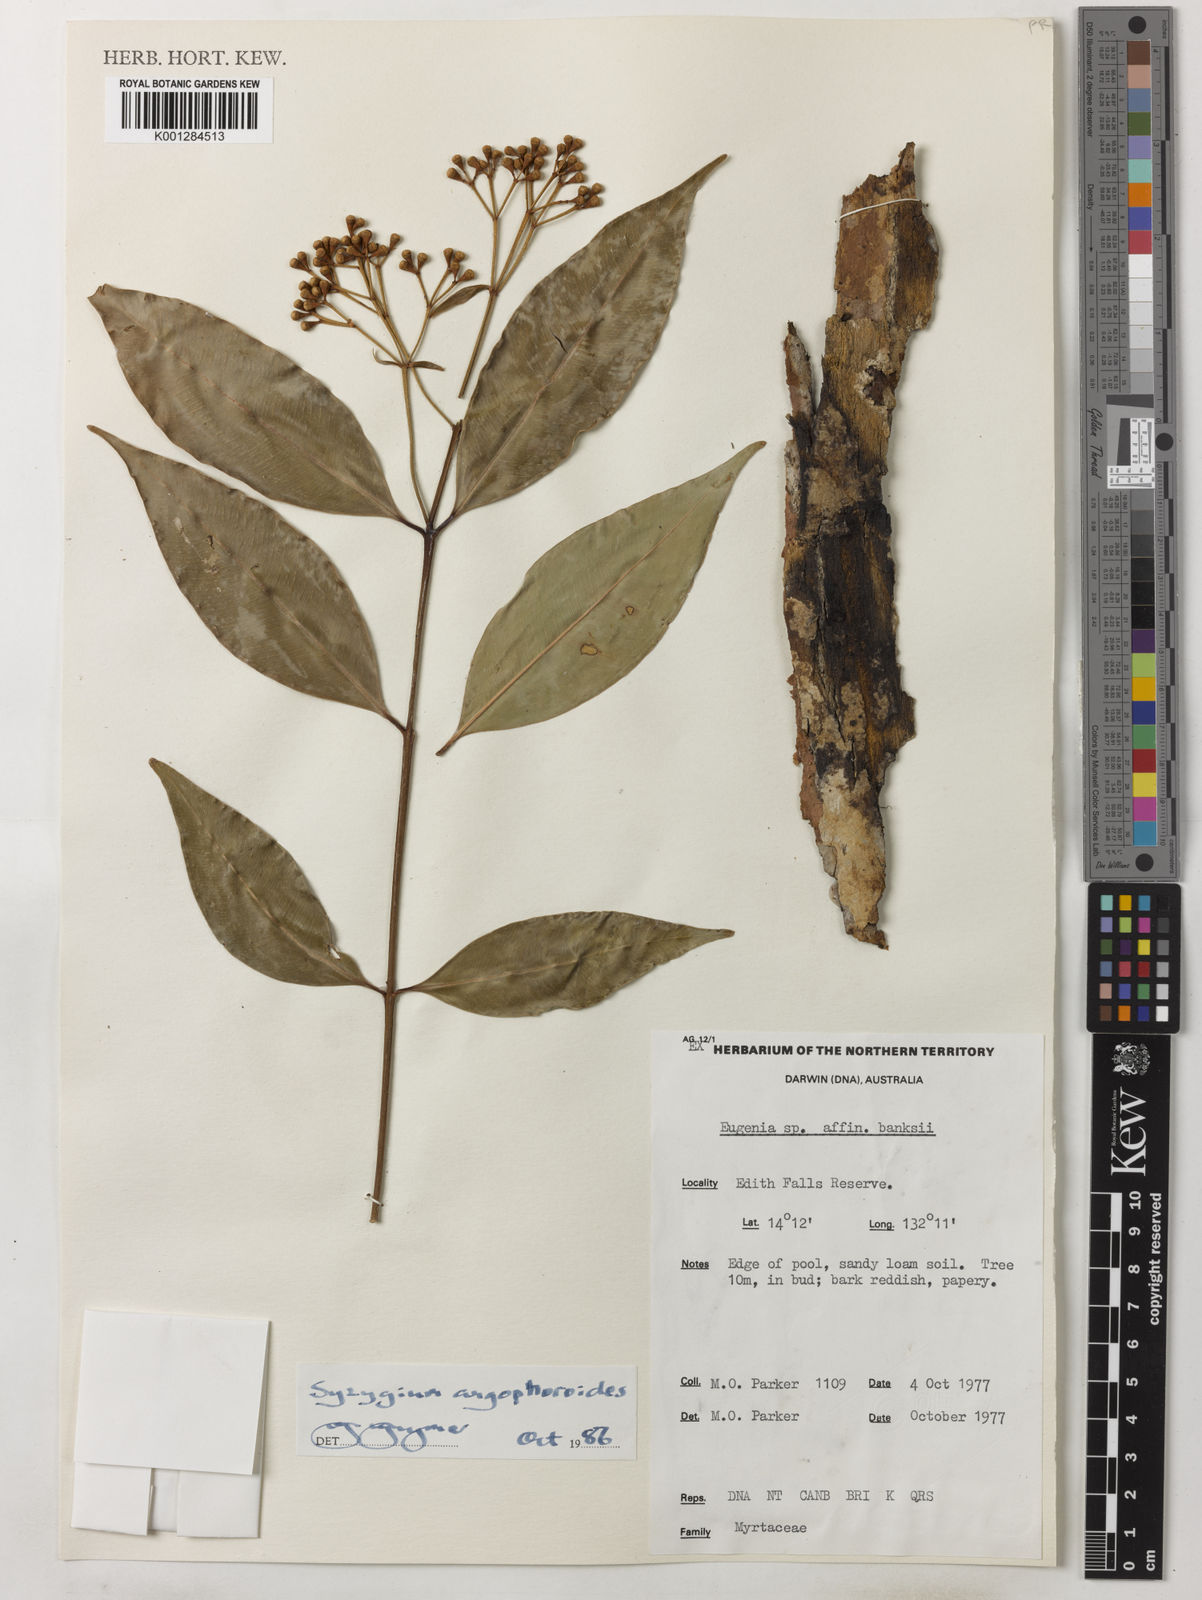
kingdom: Plantae
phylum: Tracheophyta
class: Magnoliopsida
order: Myrtales
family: Myrtaceae
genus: Syzygium
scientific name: Syzygium angophoroides
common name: Swamp satinash
